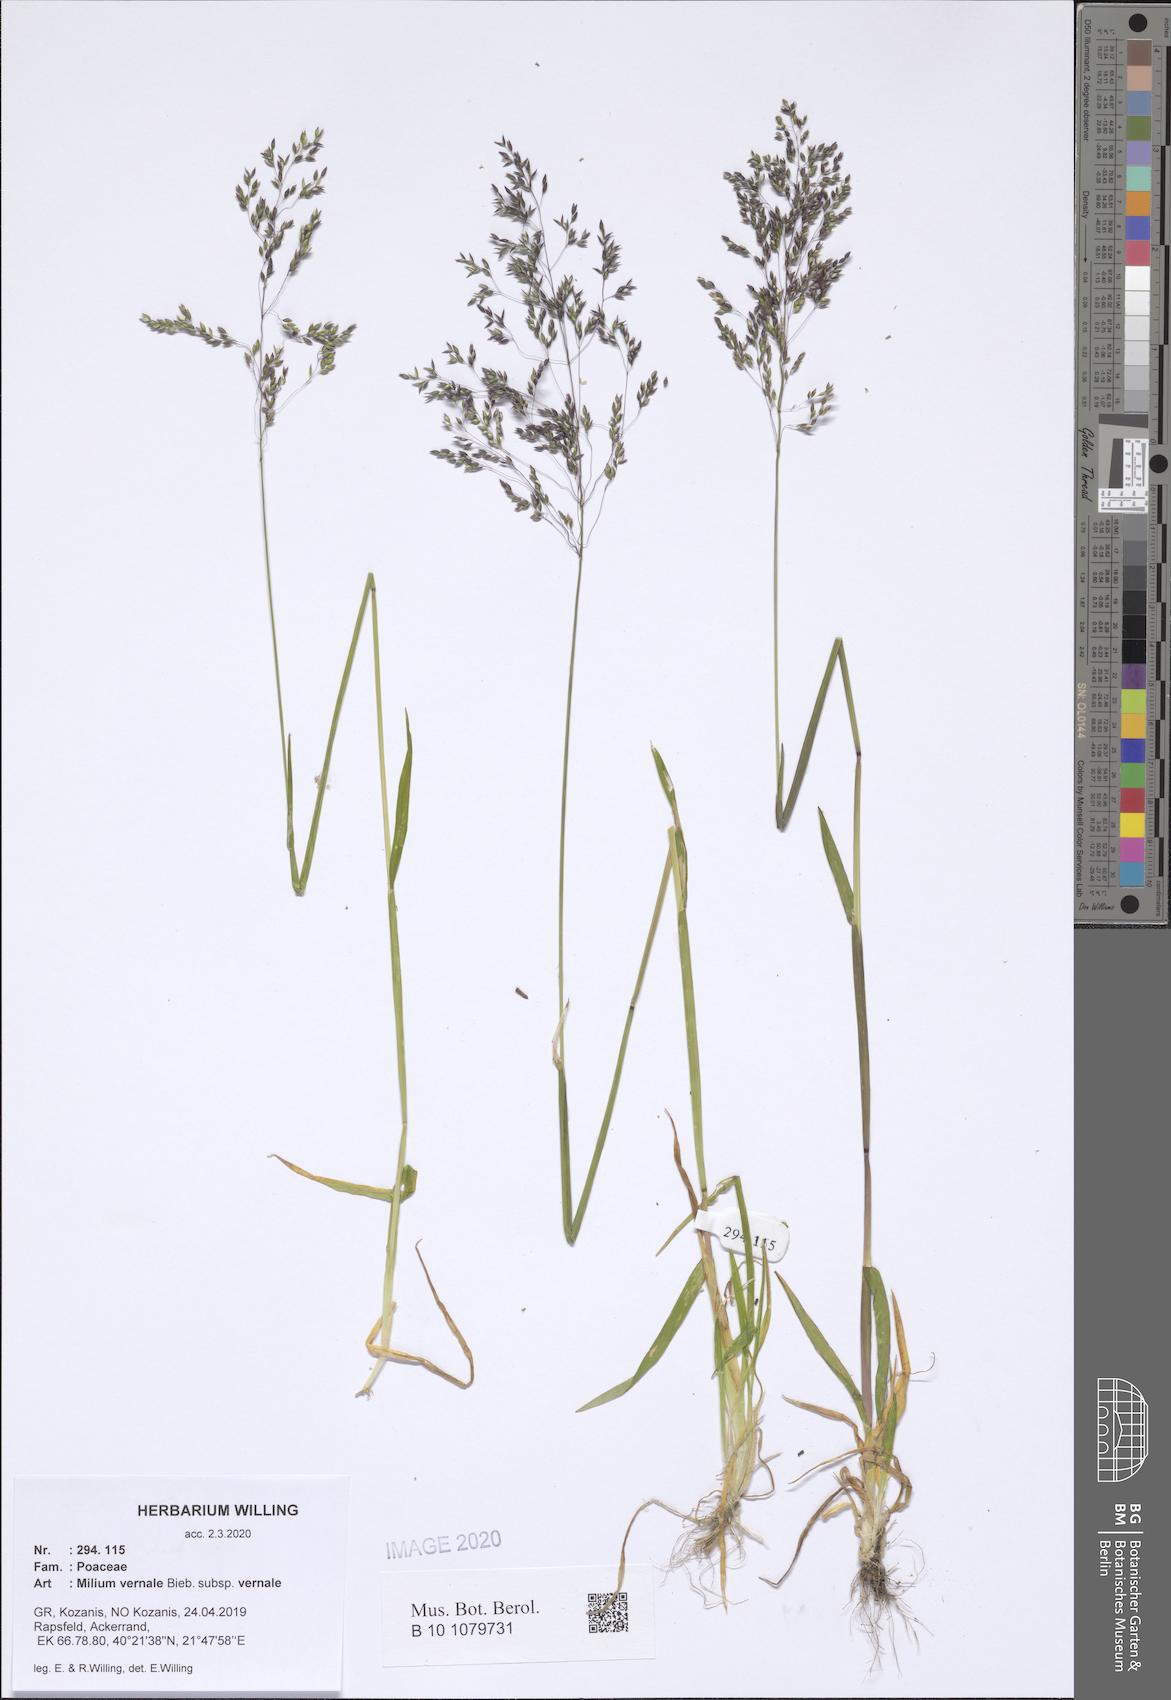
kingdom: Plantae
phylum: Tracheophyta
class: Liliopsida
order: Poales
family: Poaceae
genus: Milium
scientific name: Milium vernale
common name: Early millet
